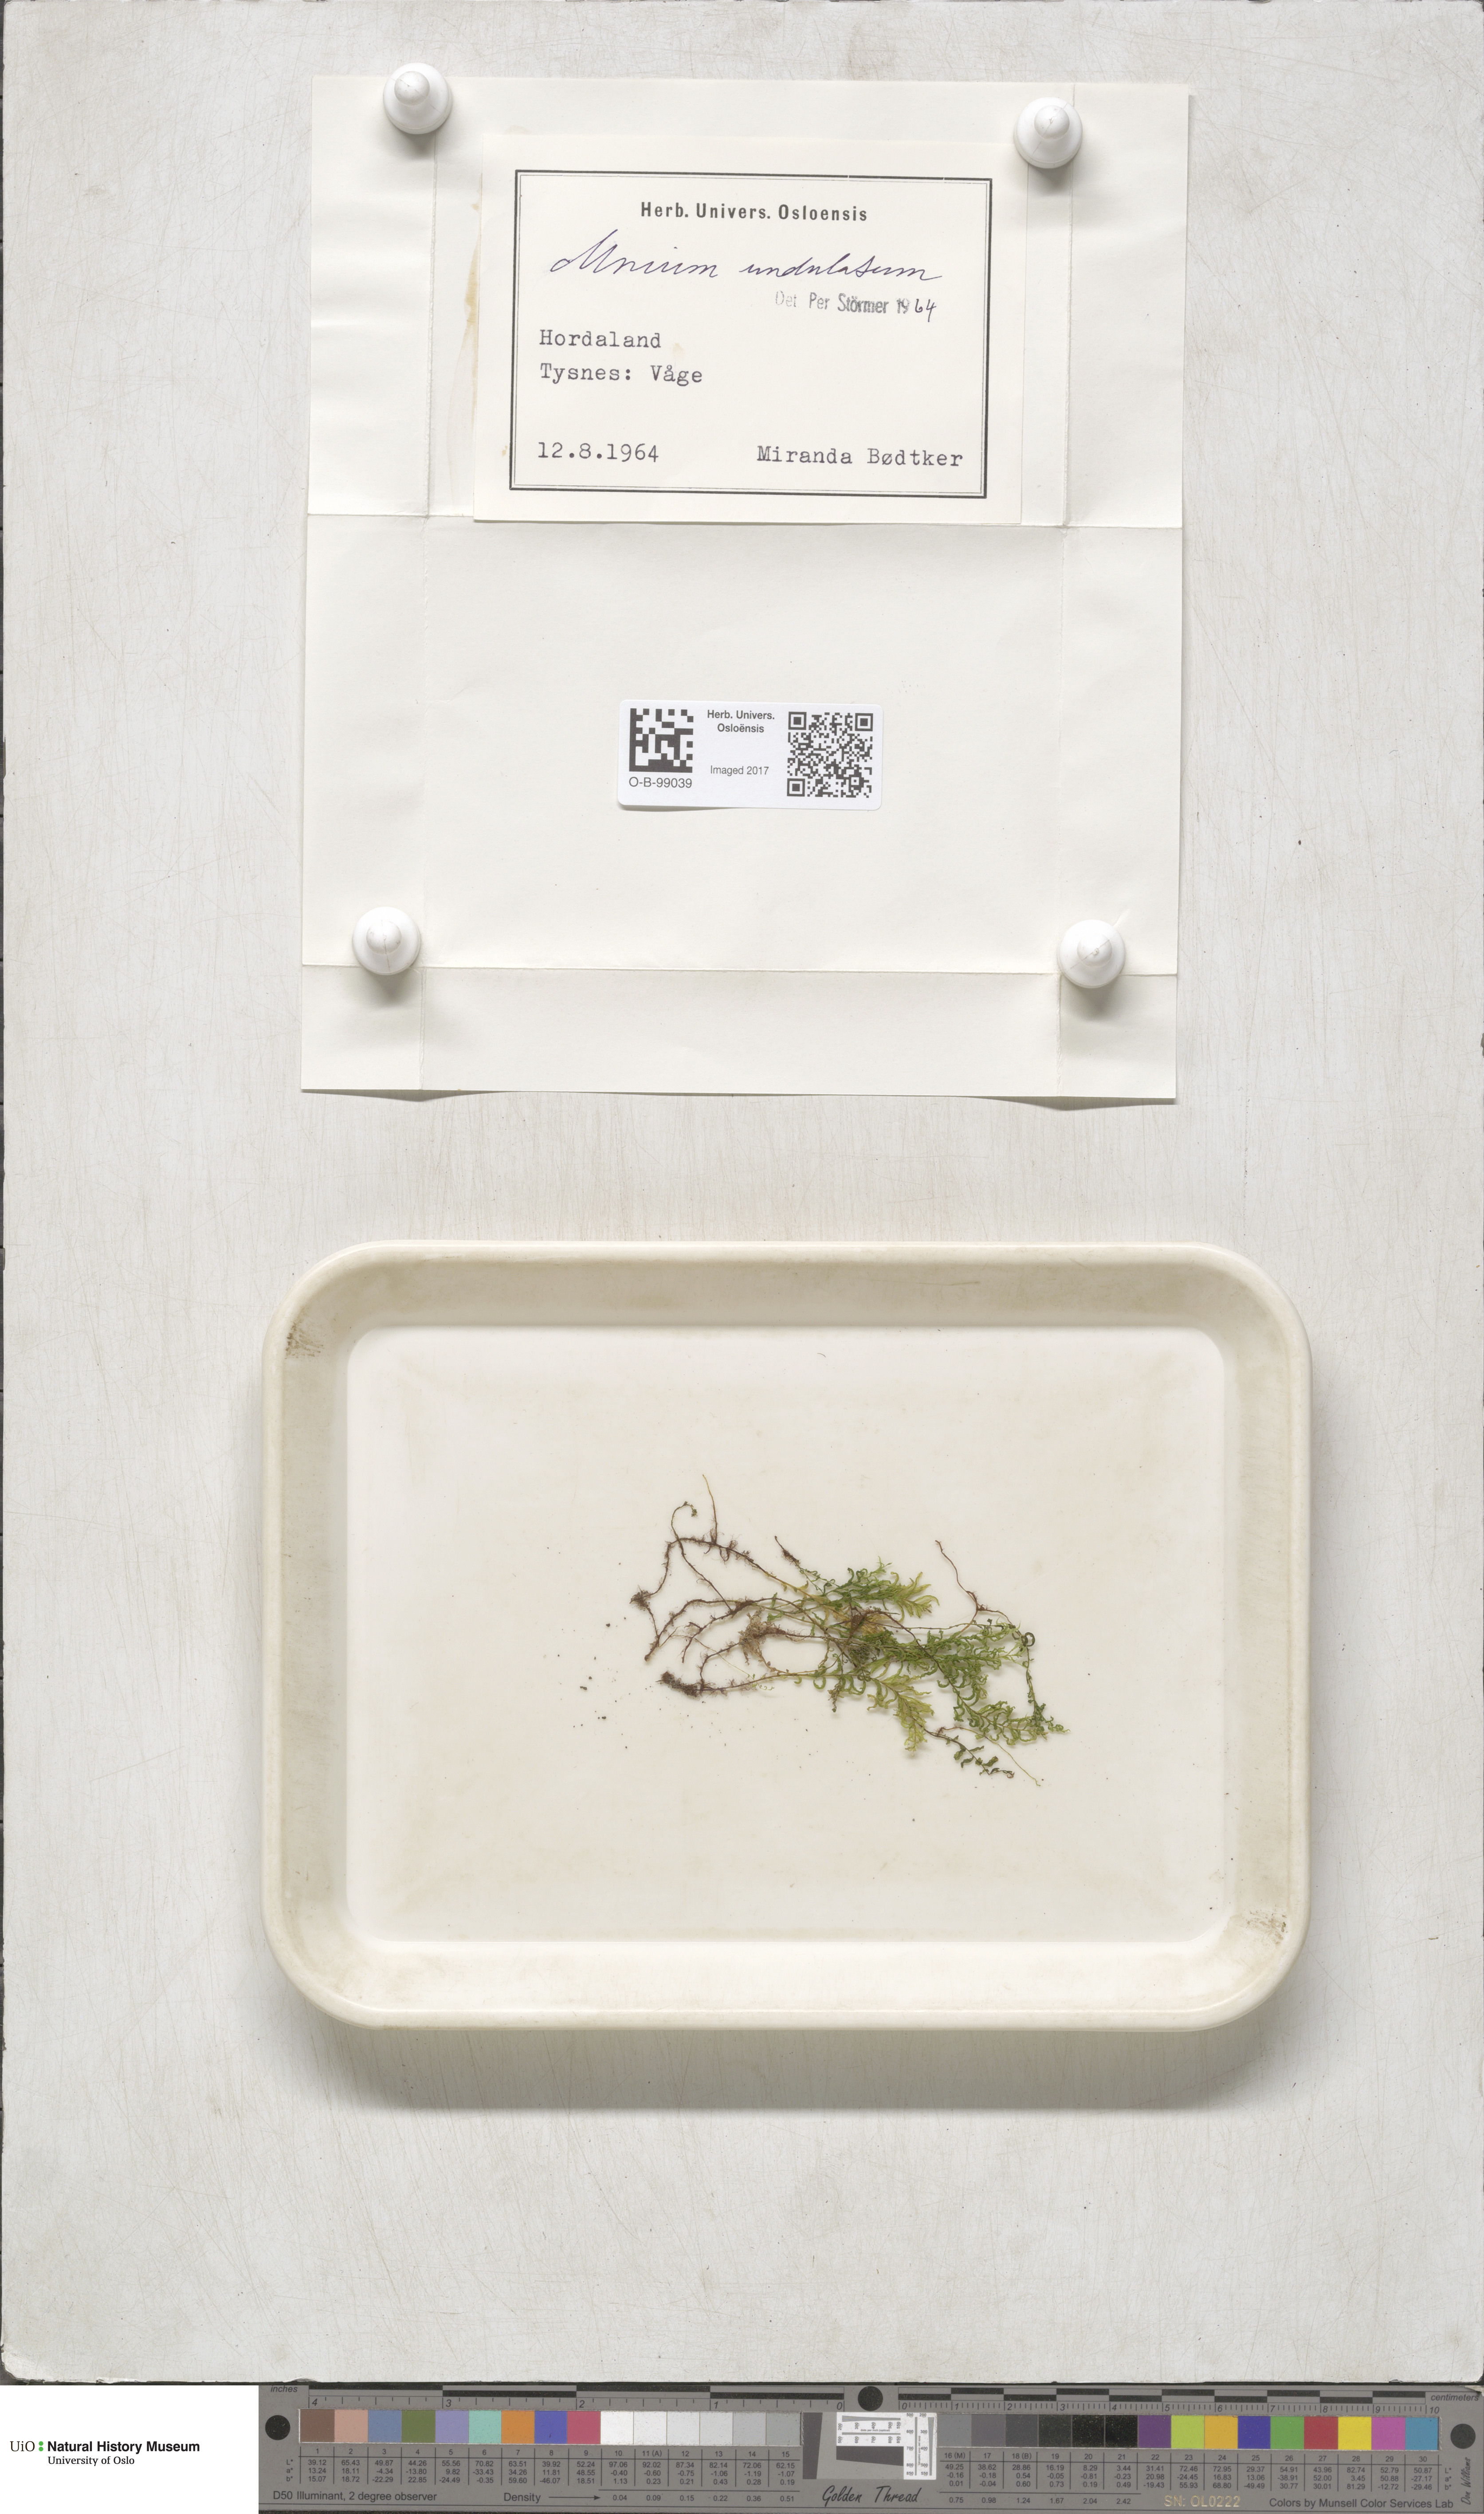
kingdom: Plantae
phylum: Bryophyta
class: Bryopsida
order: Bryales
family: Mniaceae
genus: Plagiomnium
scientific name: Plagiomnium undulatum
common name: Hart's-tongue thyme-moss
